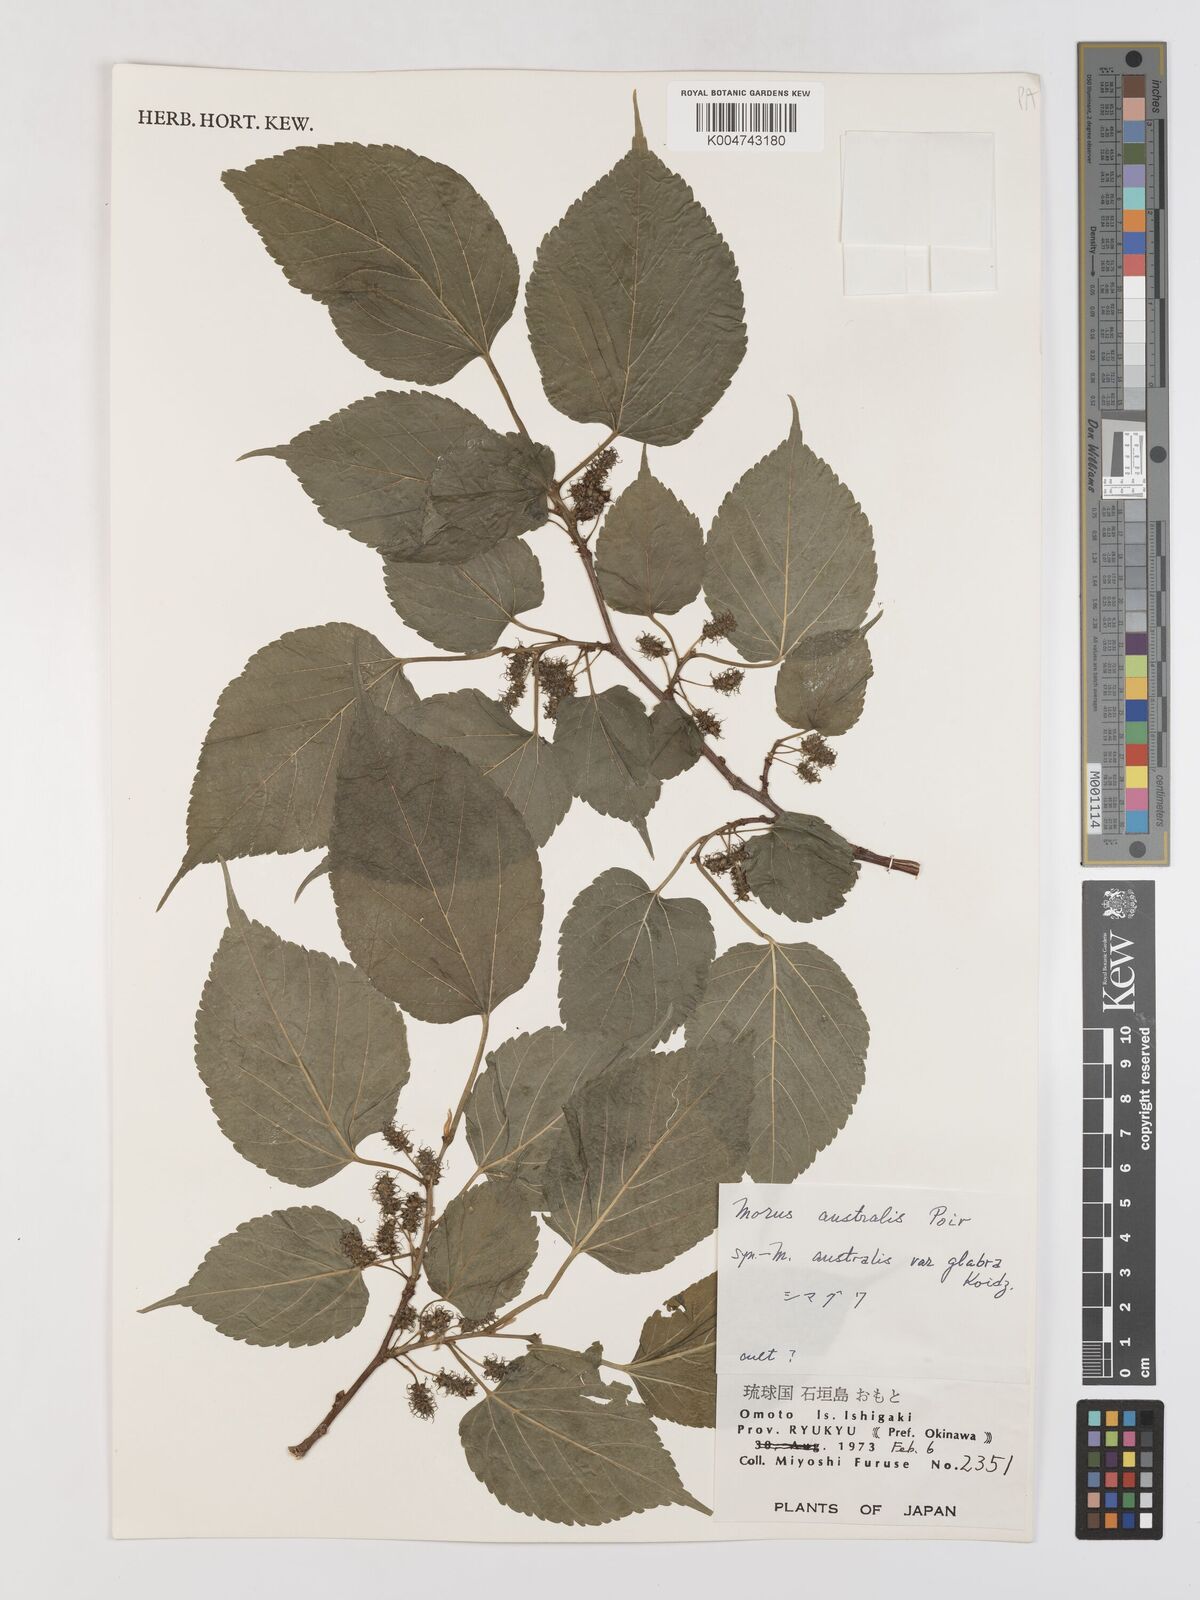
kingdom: Plantae
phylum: Tracheophyta
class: Magnoliopsida
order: Rosales
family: Moraceae
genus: Morus
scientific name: Morus indica
